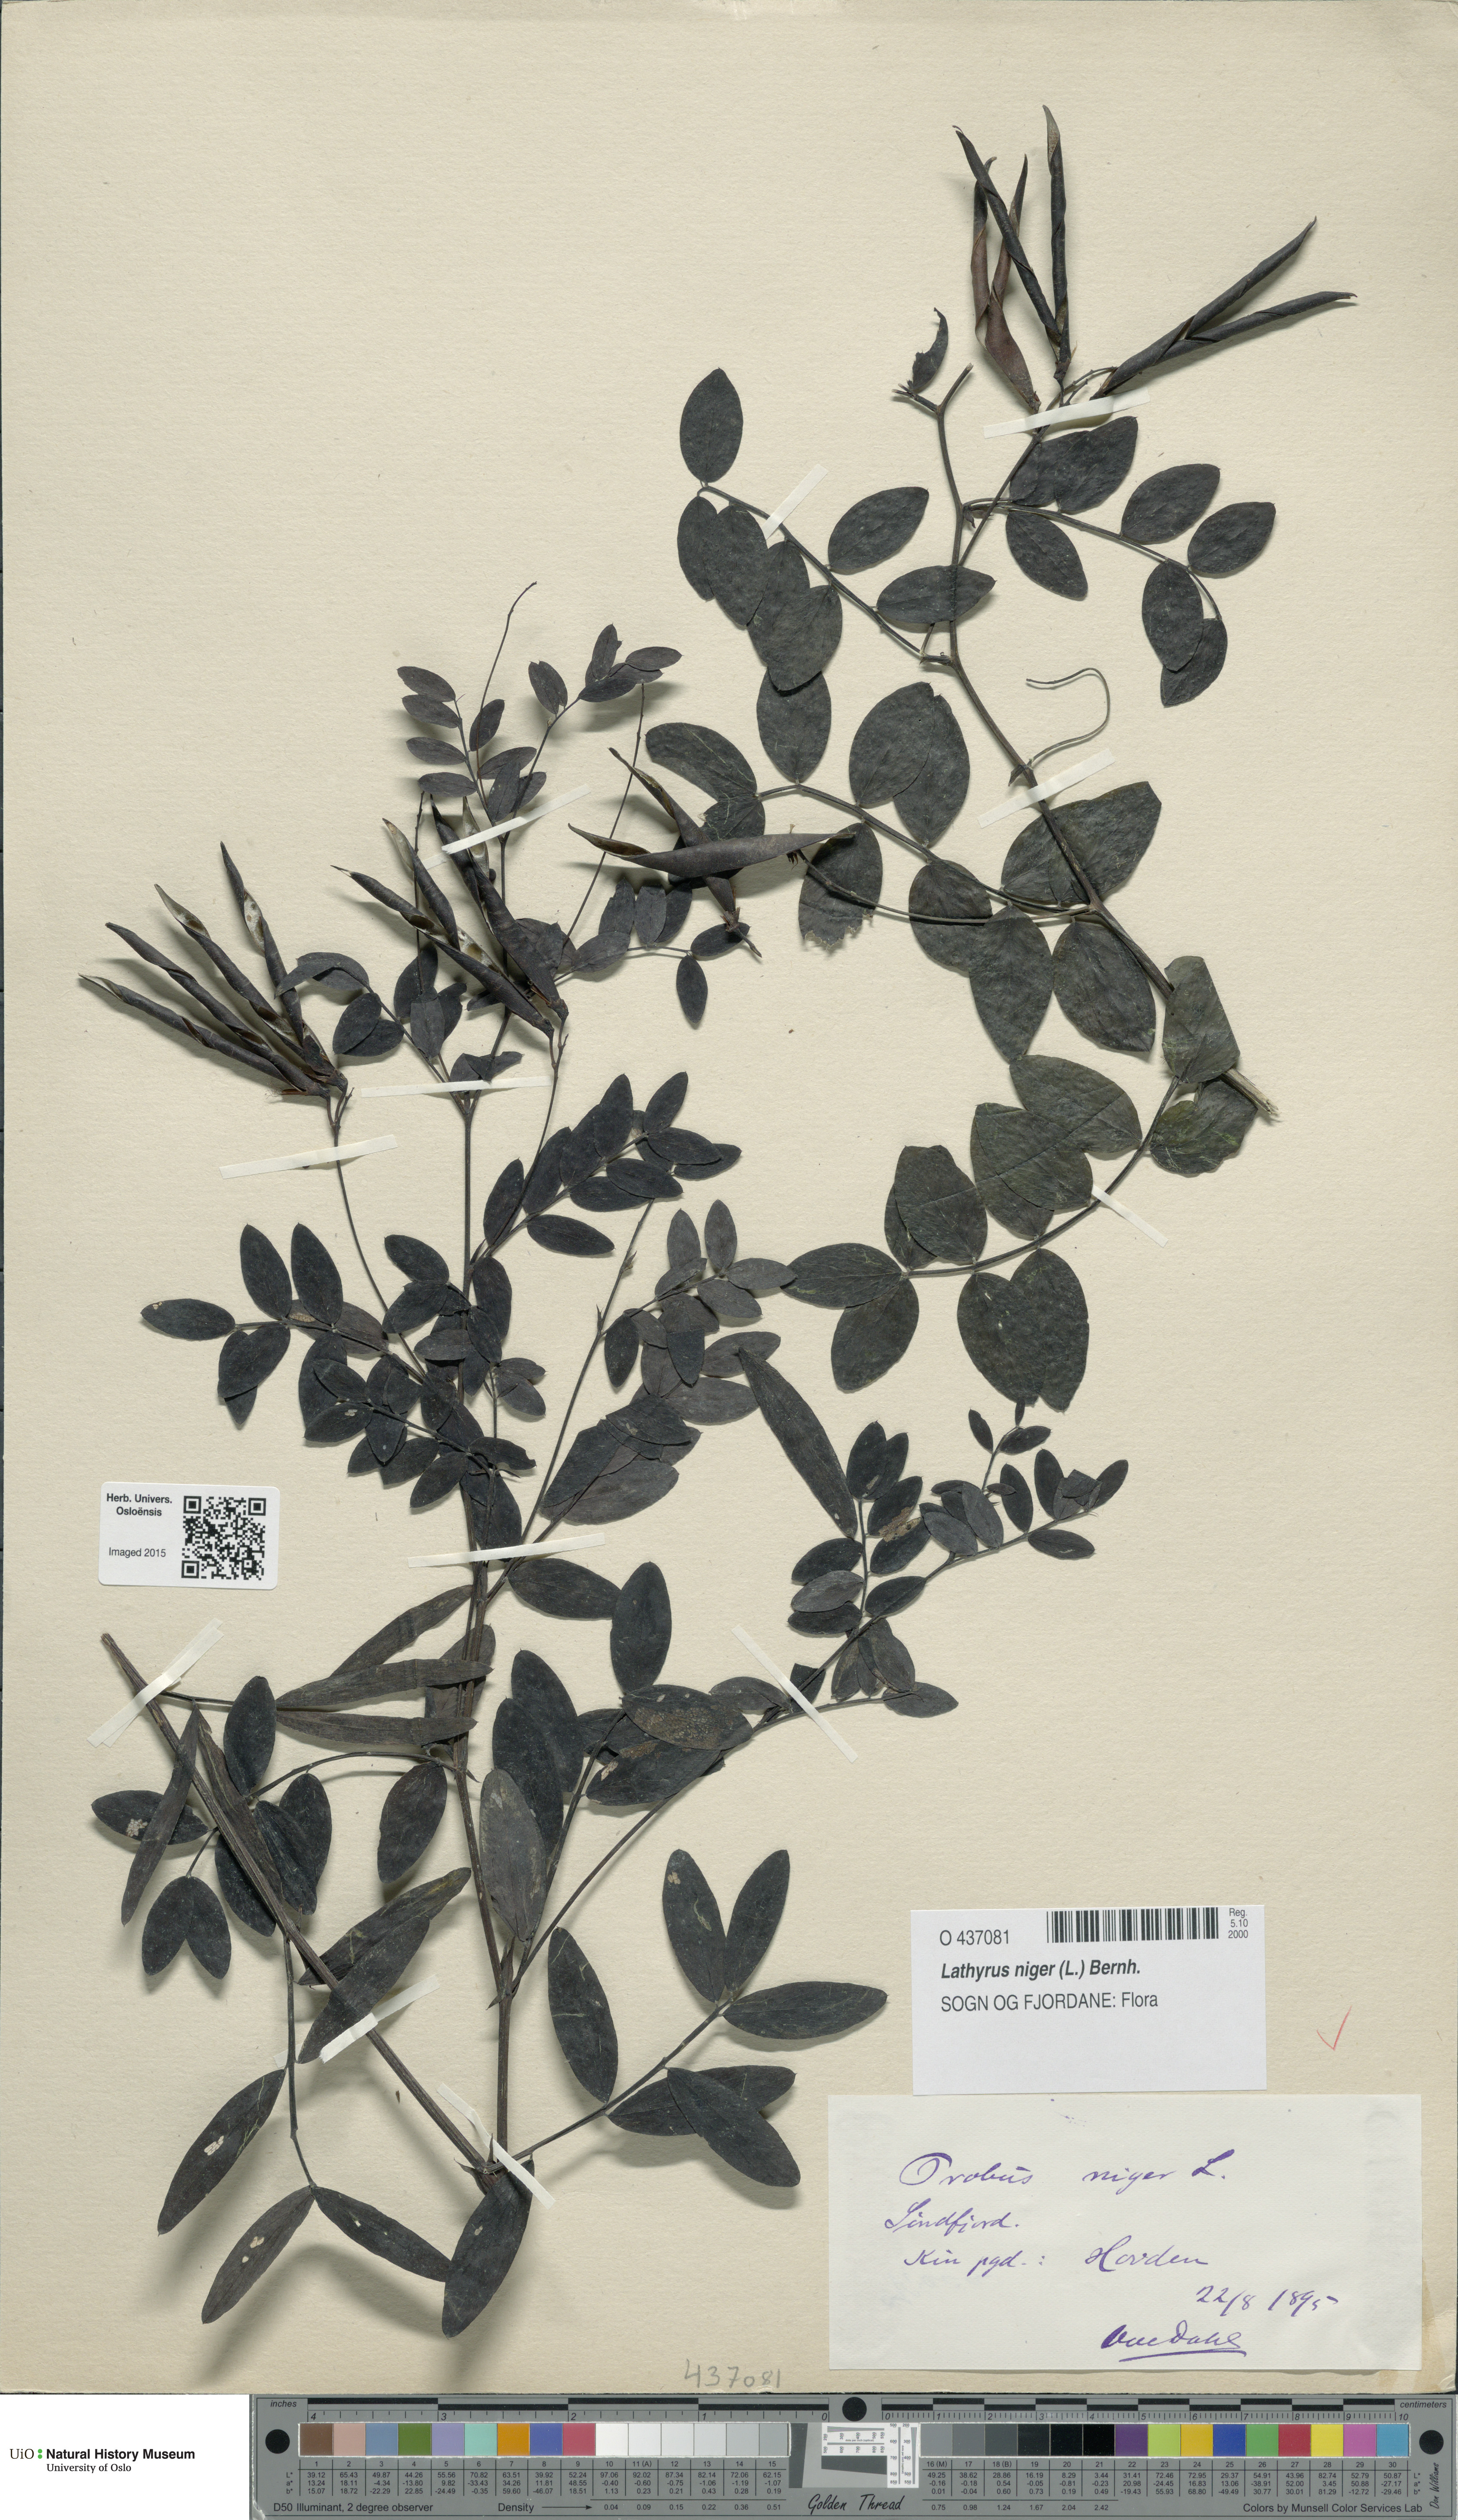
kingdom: Plantae
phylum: Tracheophyta
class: Magnoliopsida
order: Fabales
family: Fabaceae
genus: Lathyrus
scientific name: Lathyrus niger
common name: Black pea
